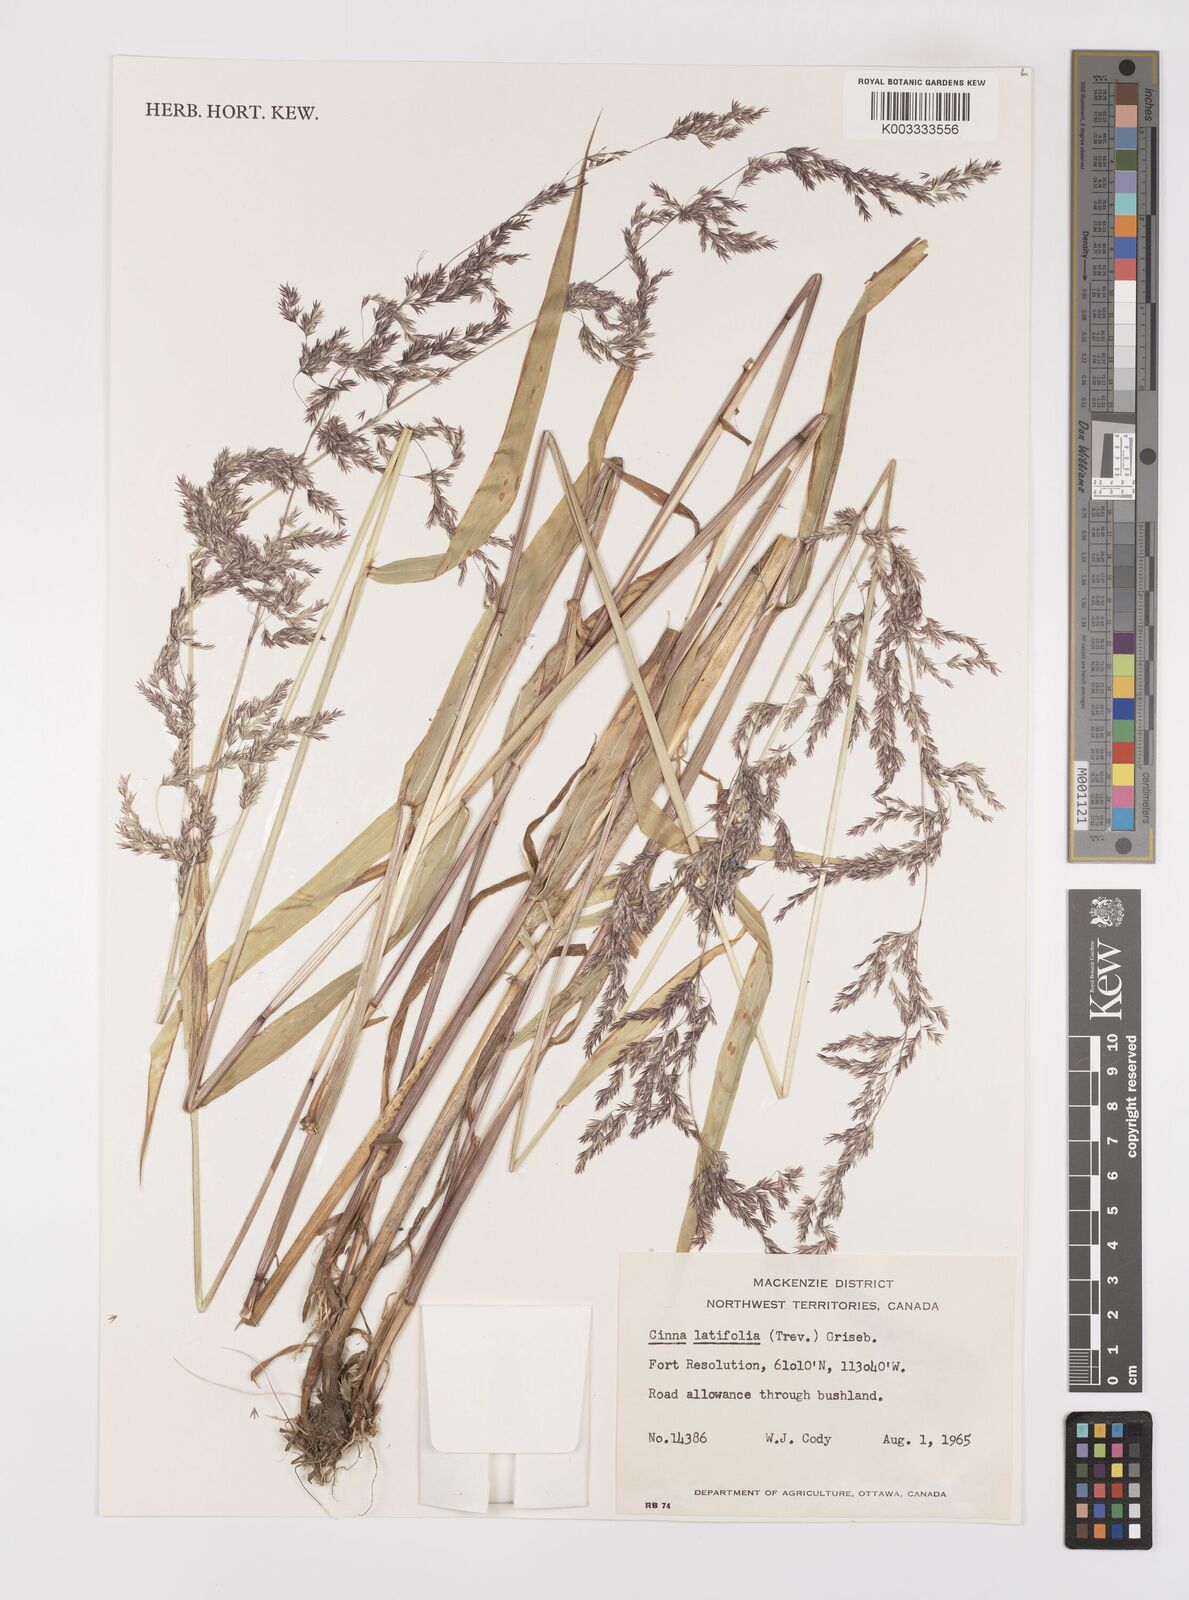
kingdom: Plantae
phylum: Tracheophyta
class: Liliopsida
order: Poales
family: Poaceae
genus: Cinna
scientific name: Cinna latifolia
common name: Drooping woodreed
